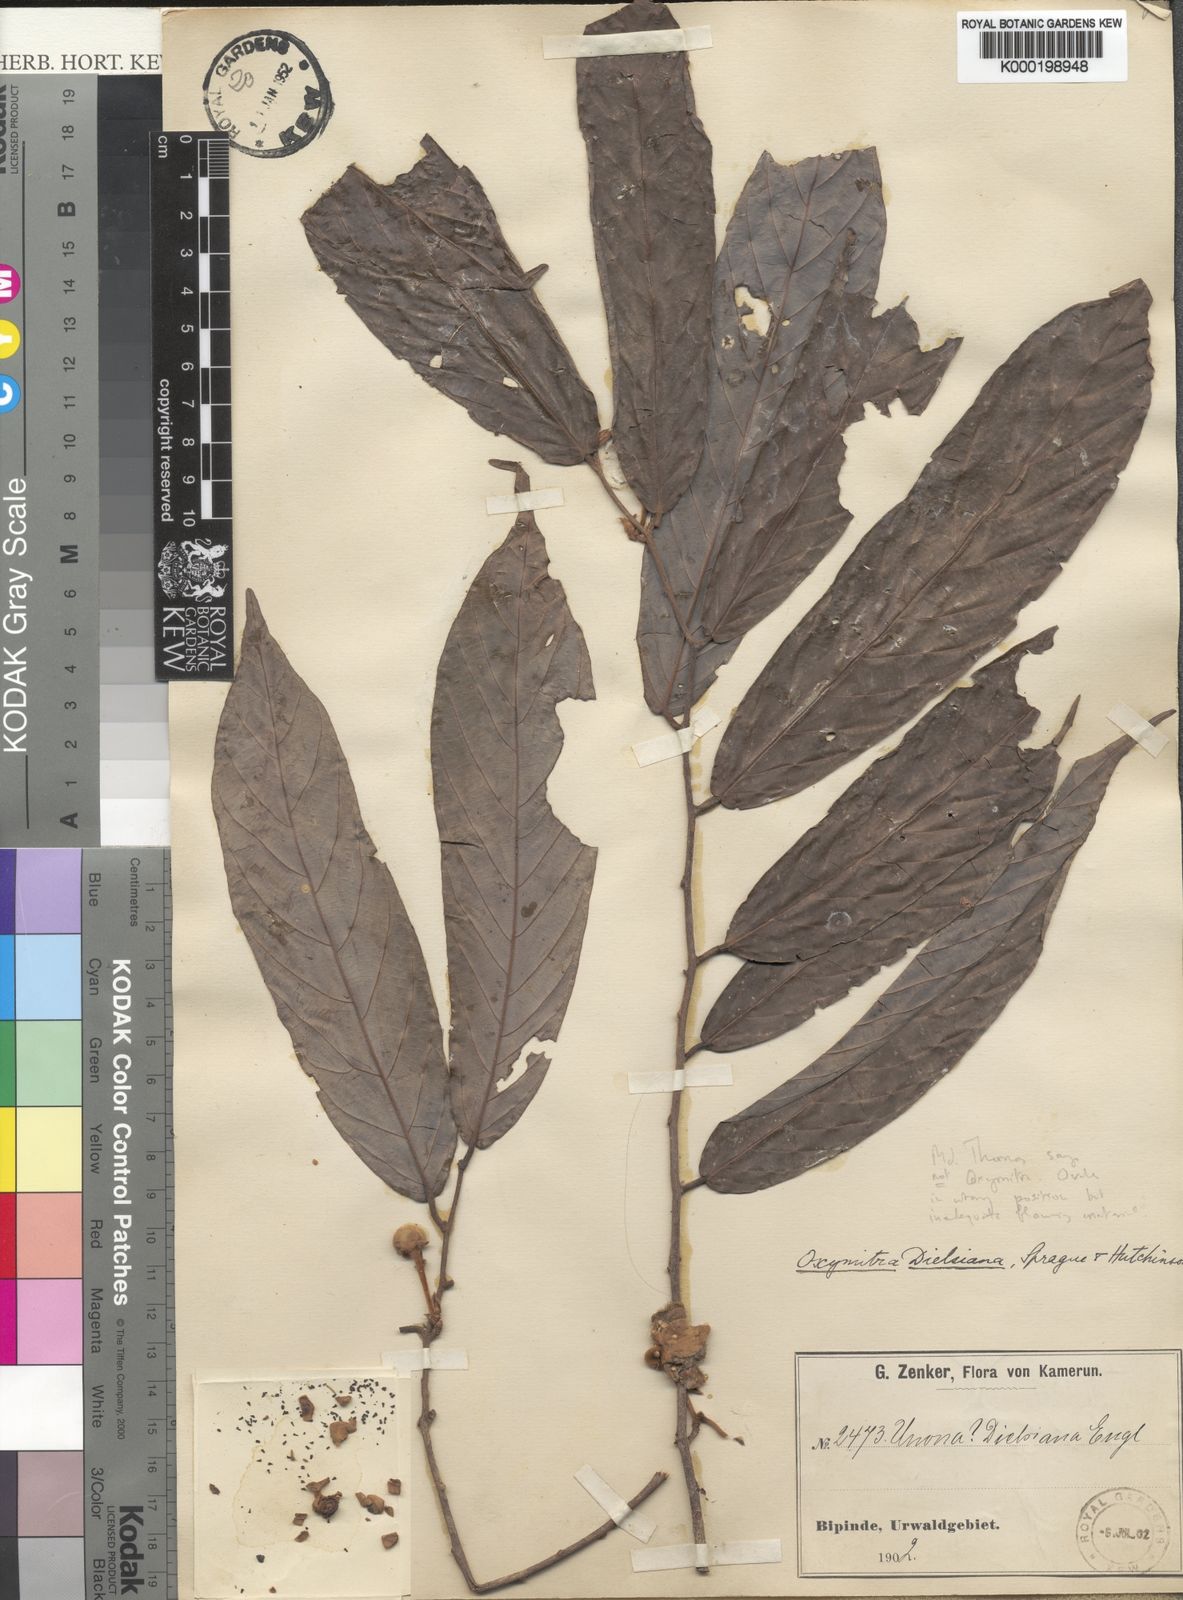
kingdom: Plantae
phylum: Tracheophyta
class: Magnoliopsida
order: Magnoliales
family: Annonaceae
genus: Friesodielsia
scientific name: Friesodielsia dielsiana
